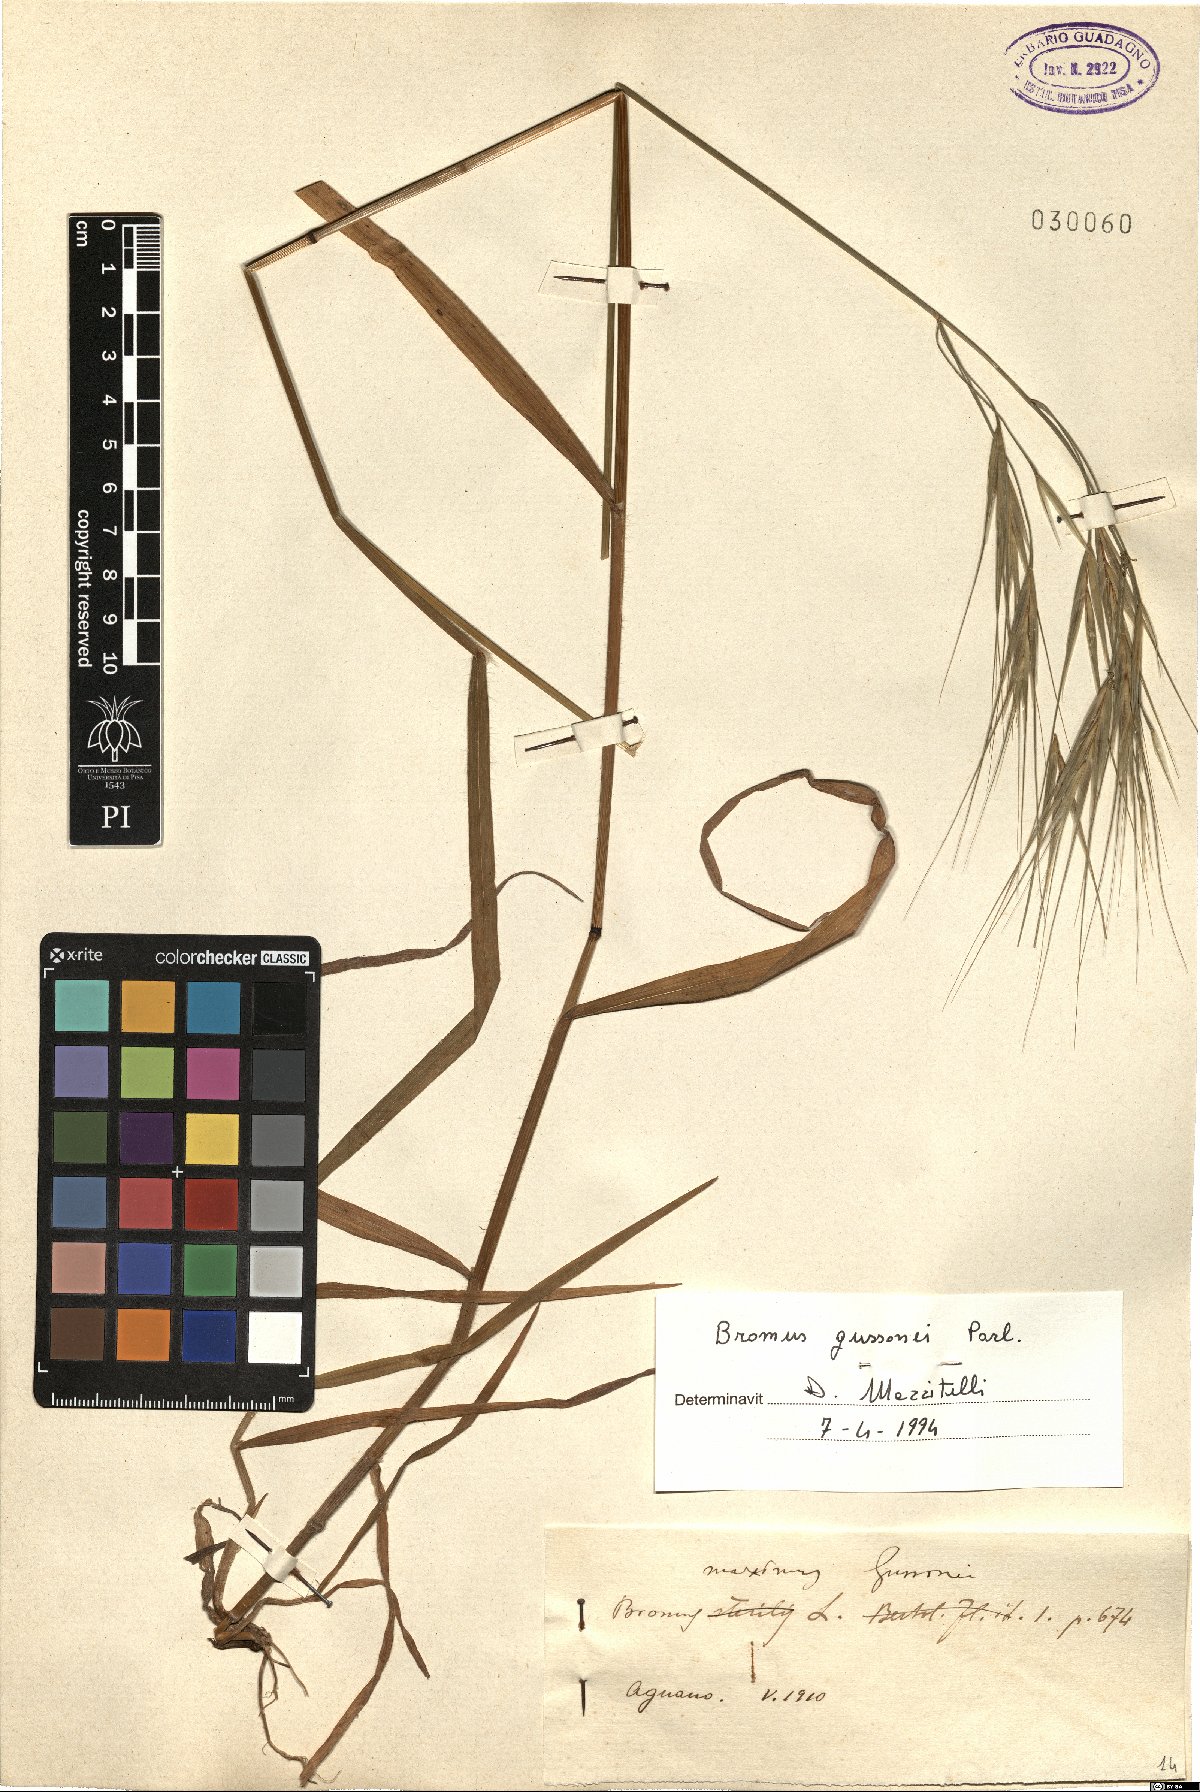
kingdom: Plantae
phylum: Tracheophyta
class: Liliopsida
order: Poales
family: Poaceae
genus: Bromus
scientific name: Bromus diandrus
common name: Ripgut brome
